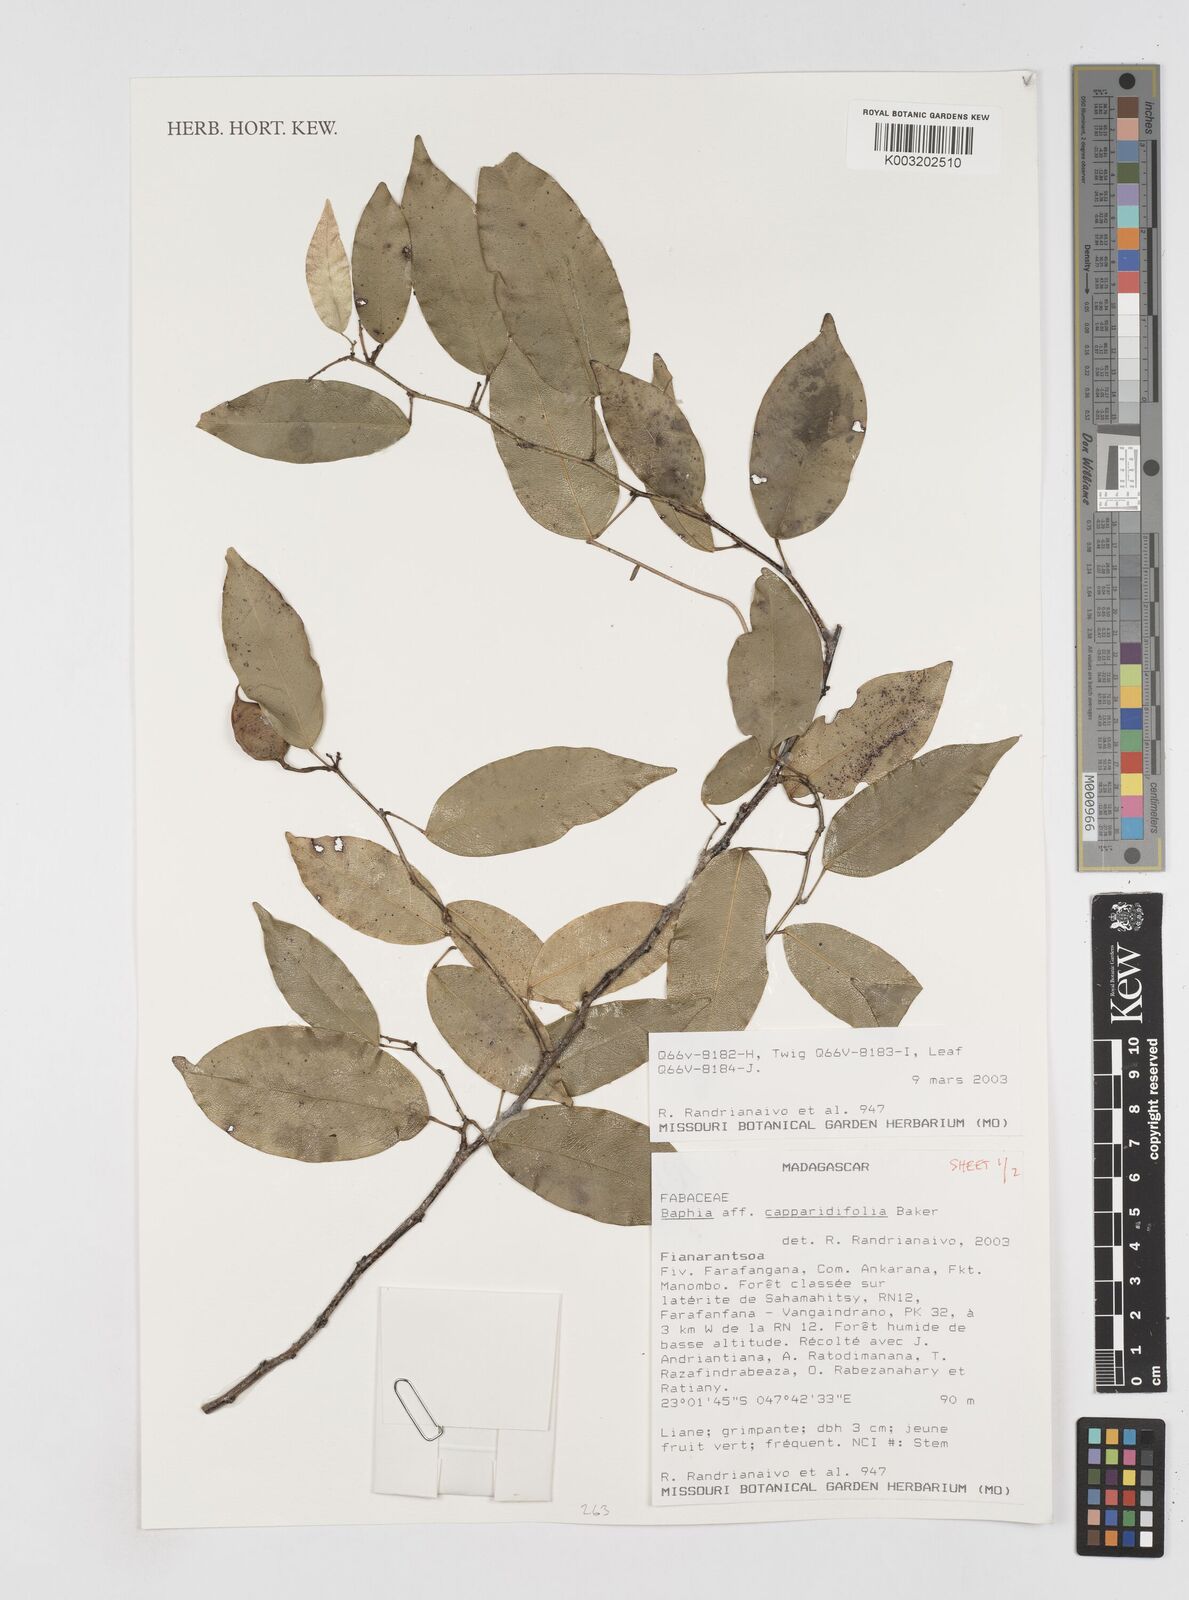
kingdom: Plantae
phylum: Tracheophyta
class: Magnoliopsida
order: Fabales
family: Fabaceae
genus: Baphia
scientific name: Baphia capparidifolia
